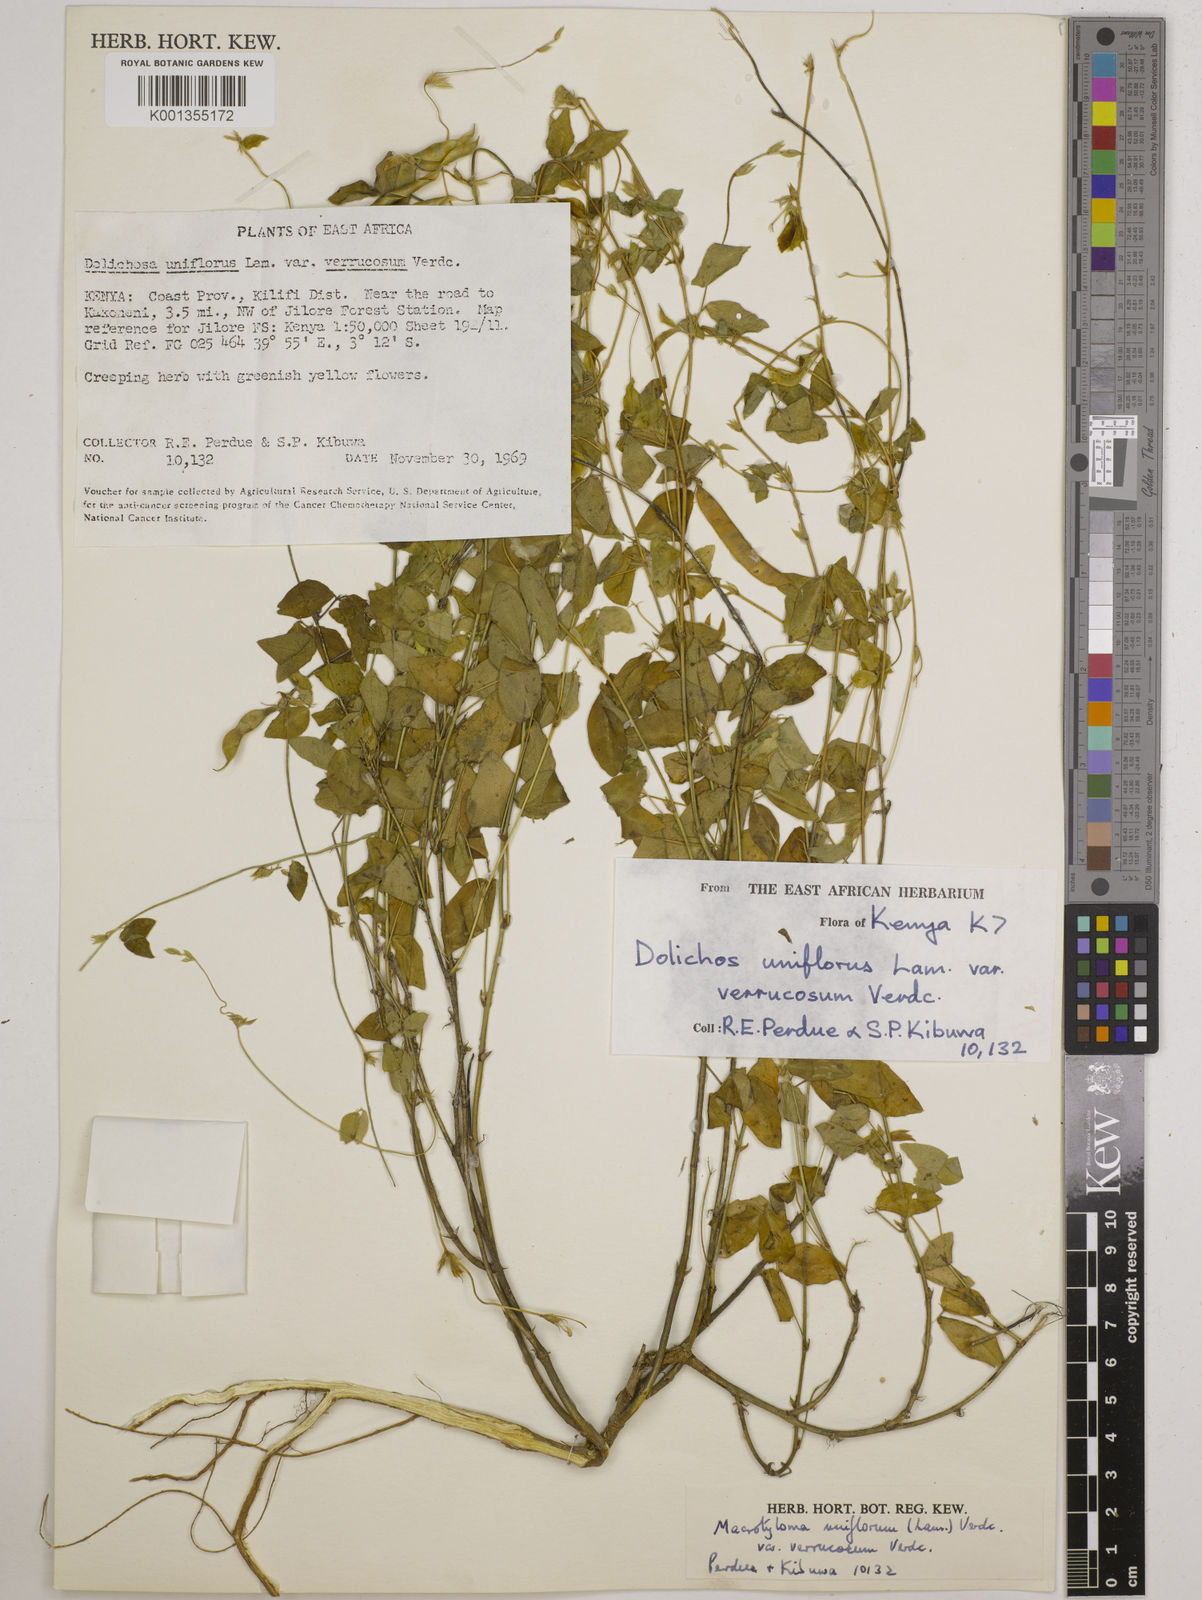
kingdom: Plantae
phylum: Tracheophyta
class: Magnoliopsida
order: Fabales
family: Fabaceae
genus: Macrotyloma
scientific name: Macrotyloma
